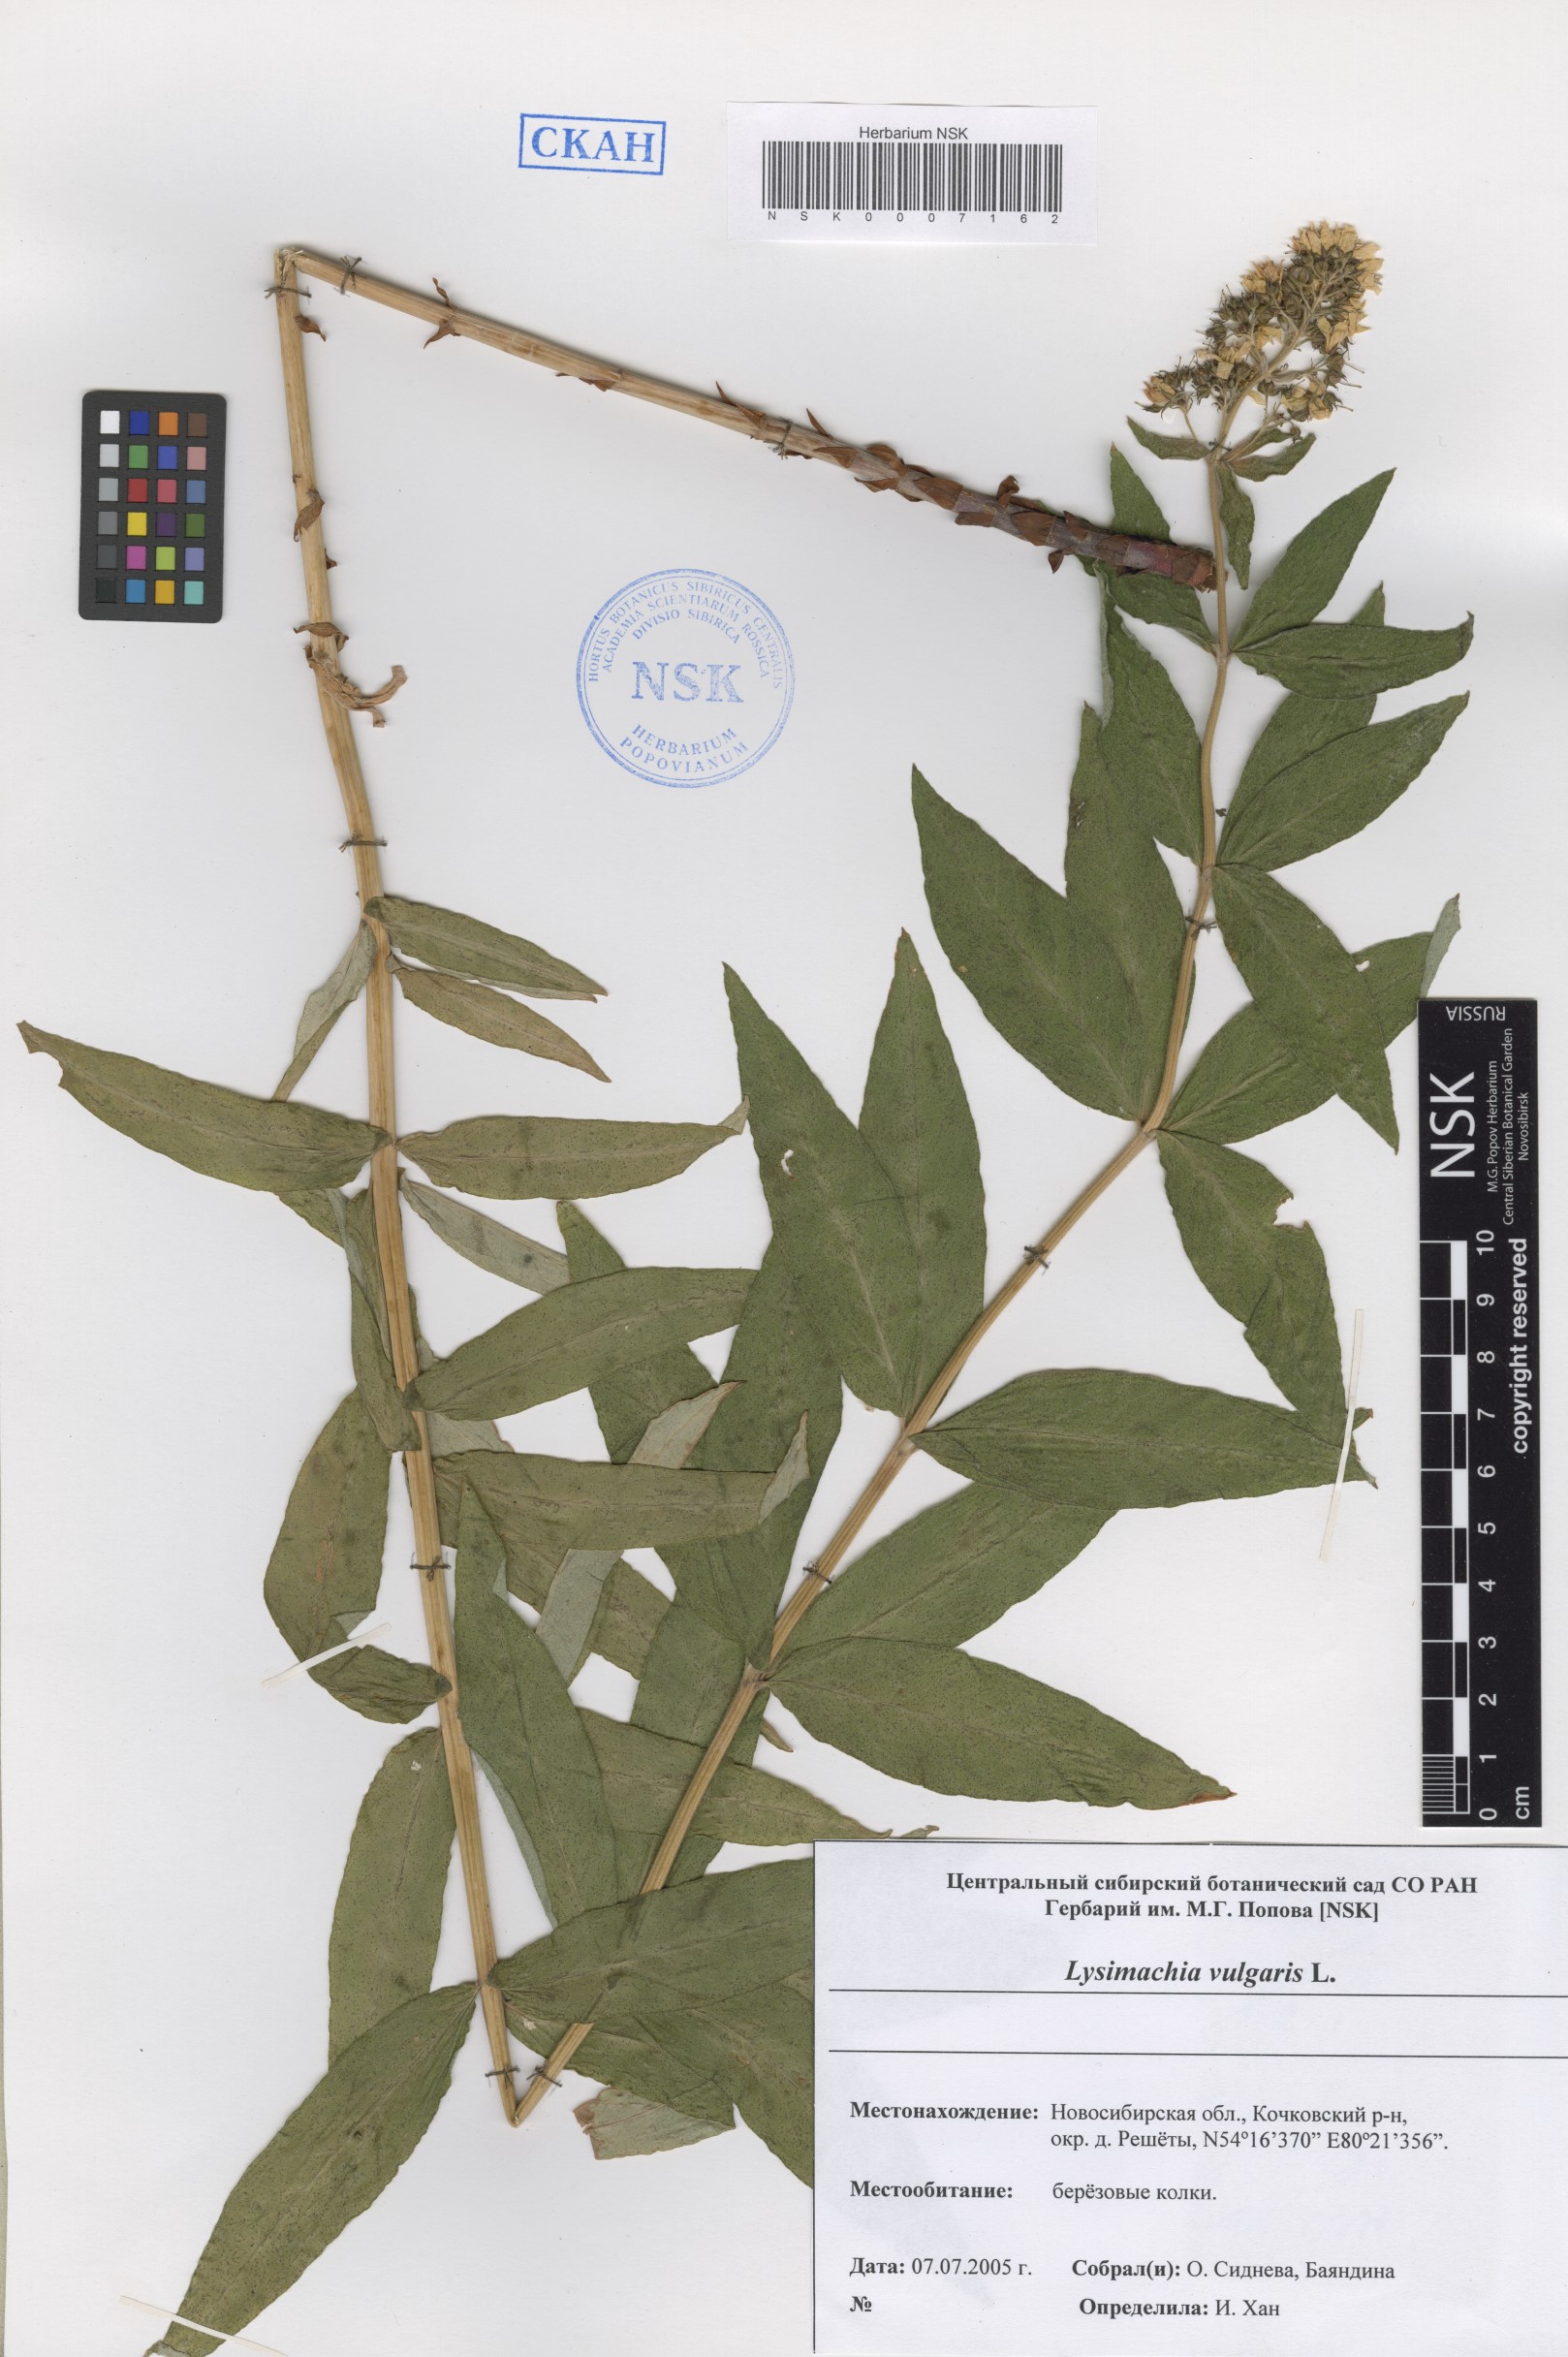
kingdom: Plantae
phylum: Tracheophyta
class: Magnoliopsida
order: Ericales
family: Primulaceae
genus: Lysimachia
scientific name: Lysimachia vulgaris
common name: Yellow loosestrife
